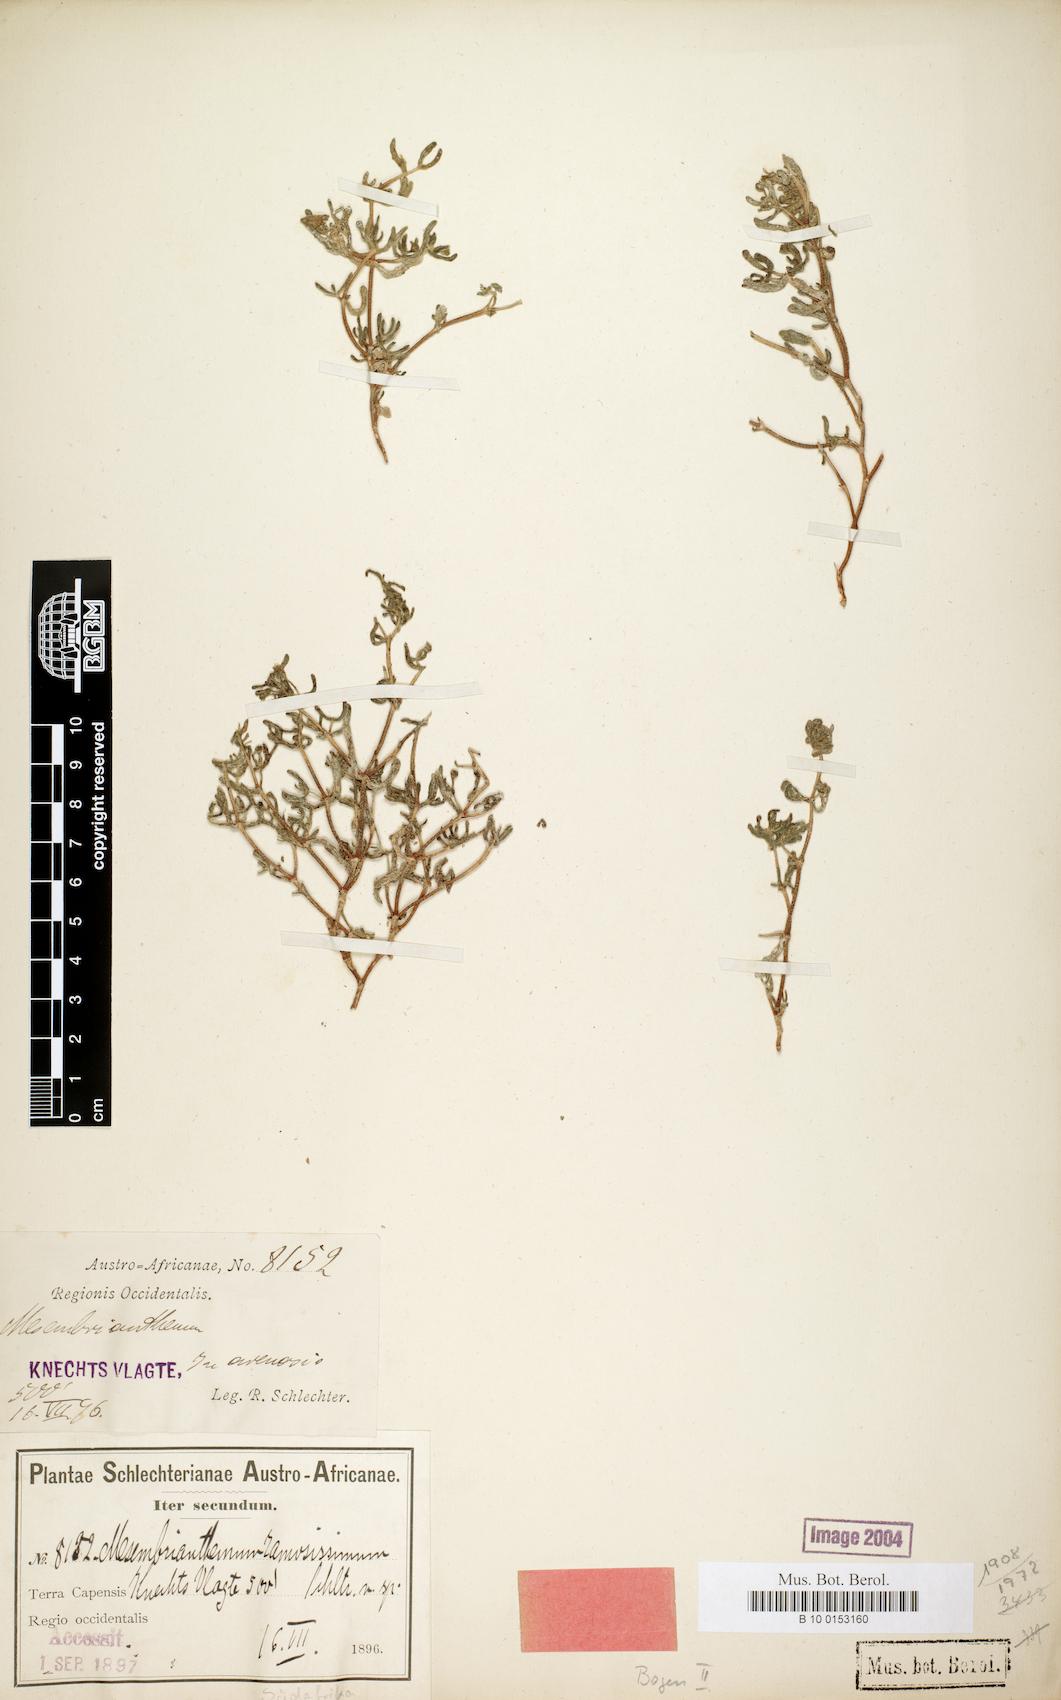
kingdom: Plantae
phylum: Tracheophyta
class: Magnoliopsida
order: Caryophyllales
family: Aizoaceae
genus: Drosanthemum
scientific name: Drosanthemum ramosissimum
